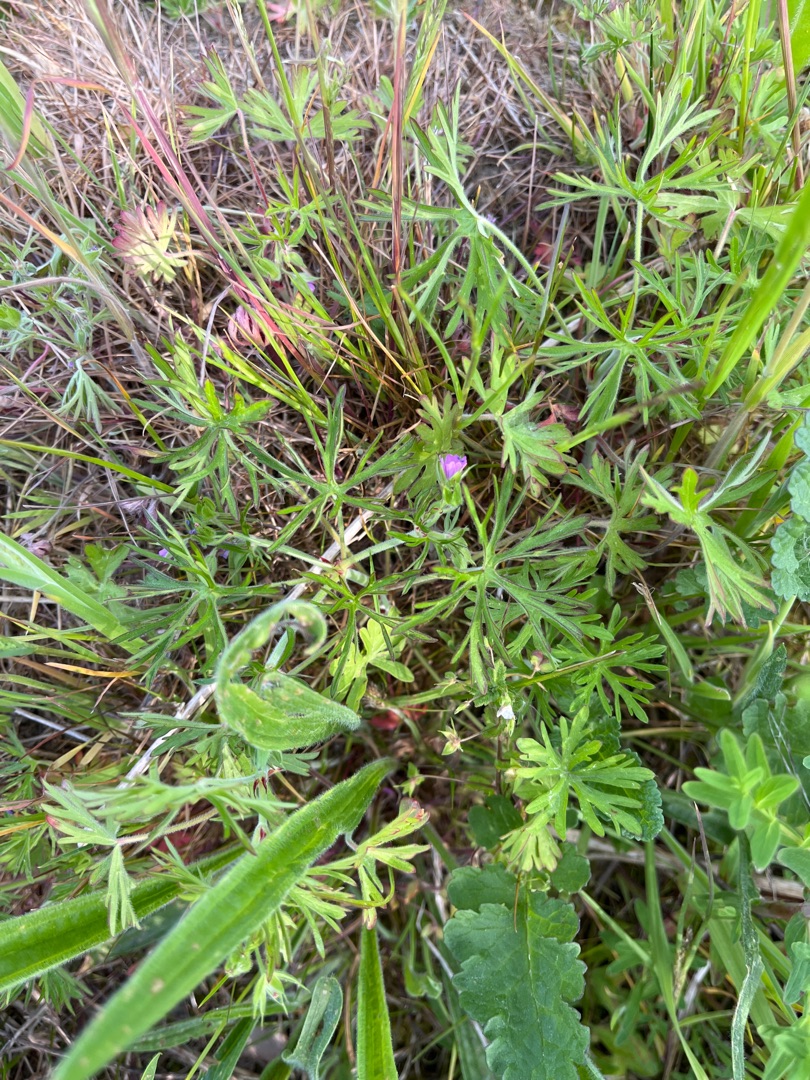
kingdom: Plantae
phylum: Tracheophyta
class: Magnoliopsida
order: Geraniales
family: Geraniaceae
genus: Geranium
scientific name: Geranium dissectum
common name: Kløftet storkenæb
